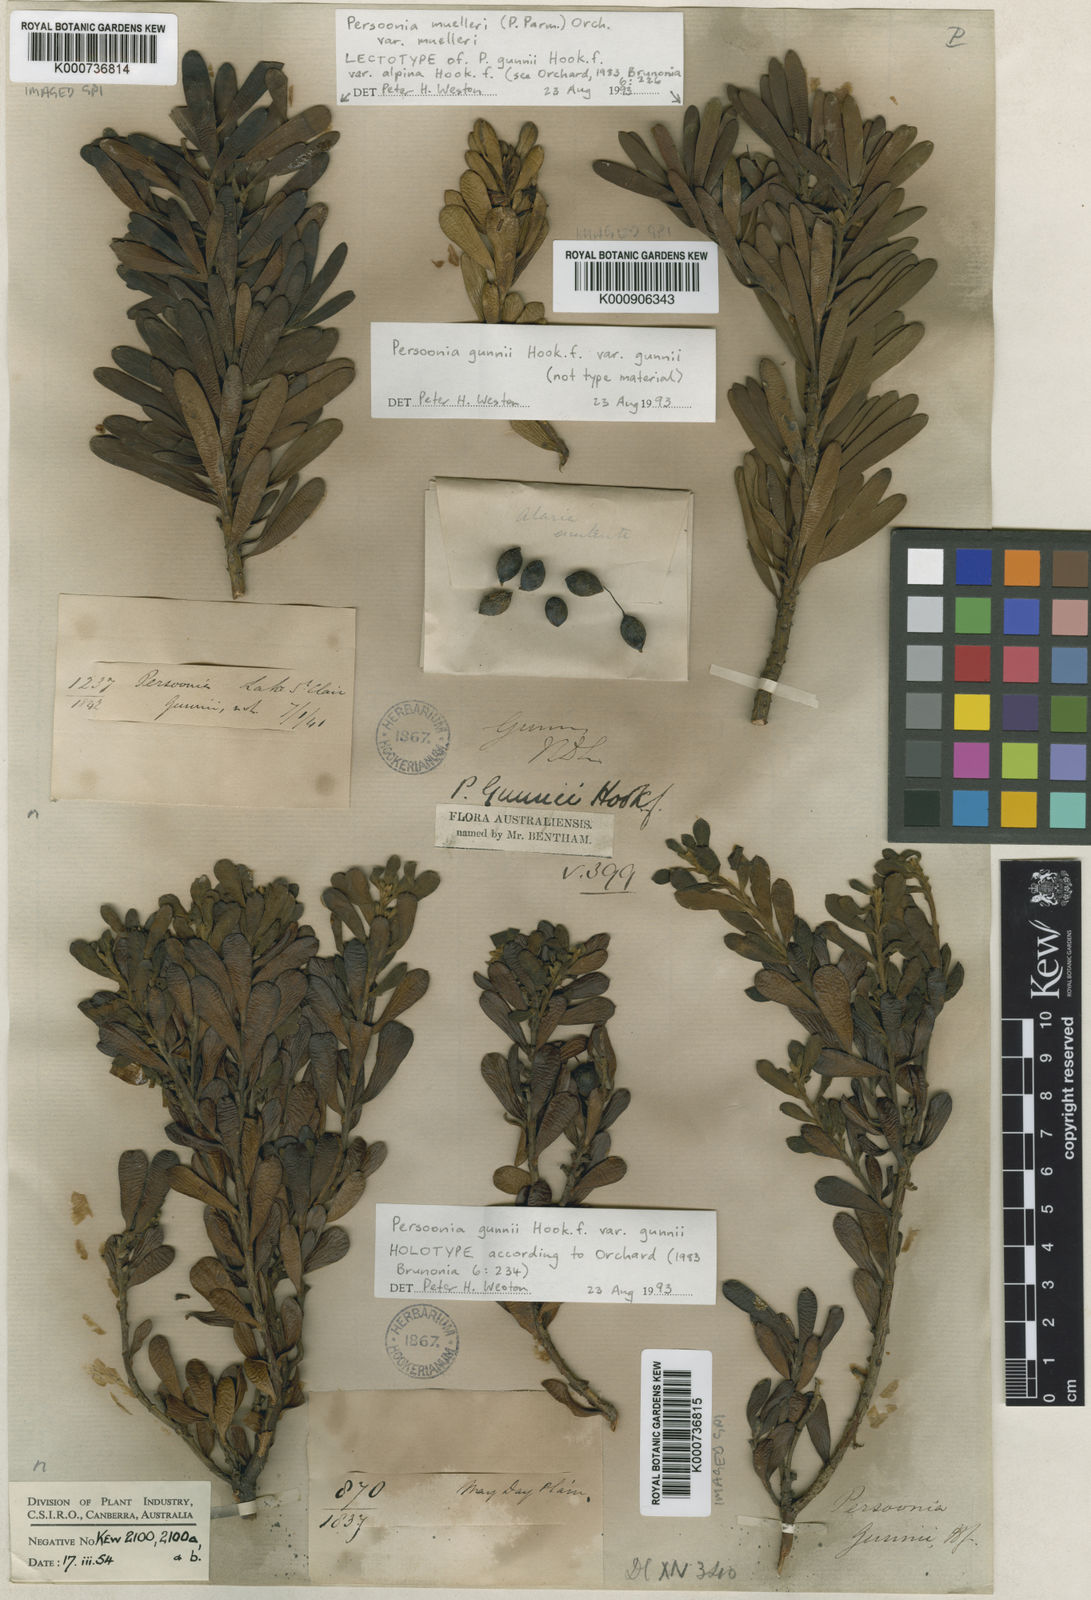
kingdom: Plantae
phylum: Tracheophyta
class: Magnoliopsida
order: Proteales
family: Proteaceae
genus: Persoonia
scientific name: Persoonia gunnii
